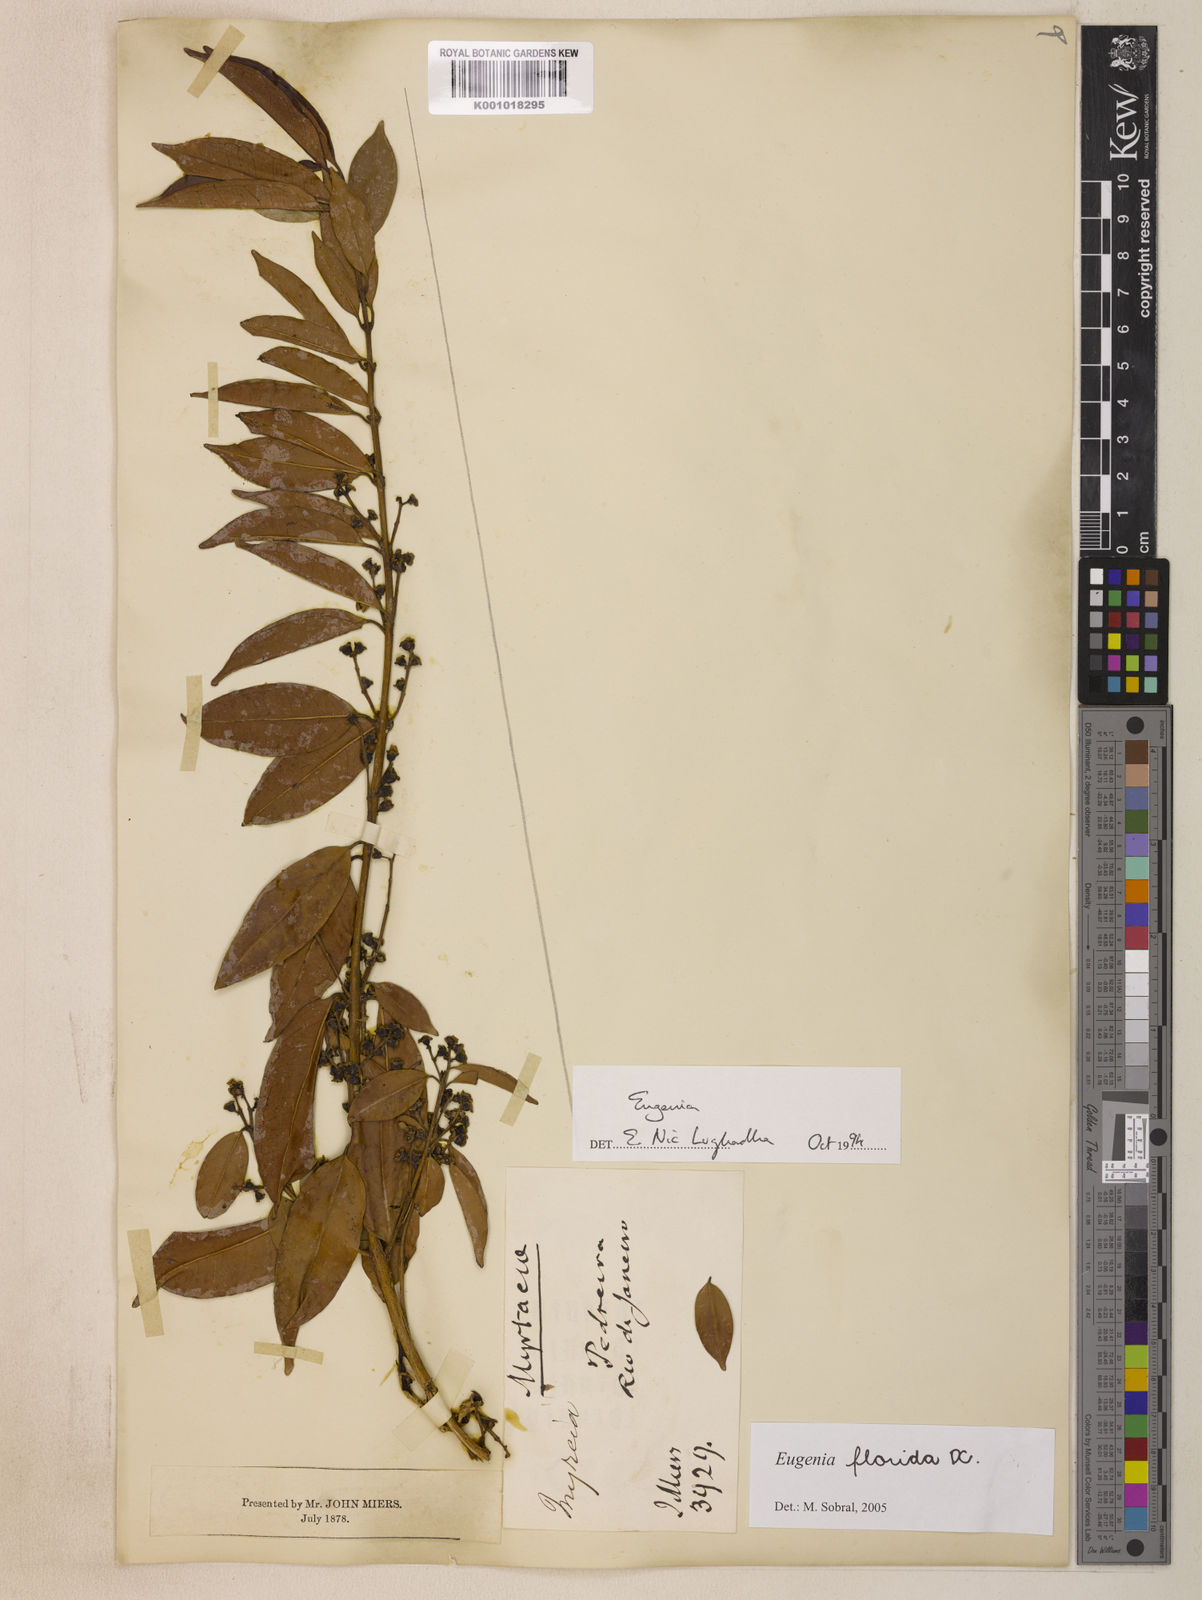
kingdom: Plantae
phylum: Tracheophyta
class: Magnoliopsida
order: Myrtales
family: Myrtaceae
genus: Eugenia
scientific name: Eugenia florida
